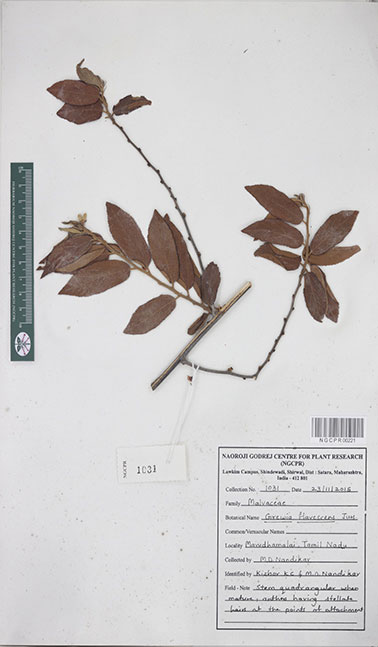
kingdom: Plantae
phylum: Tracheophyta
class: Magnoliopsida
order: Malvales
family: Malvaceae
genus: Grewia
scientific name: Grewia flavescens
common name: Sandpaper raisin
